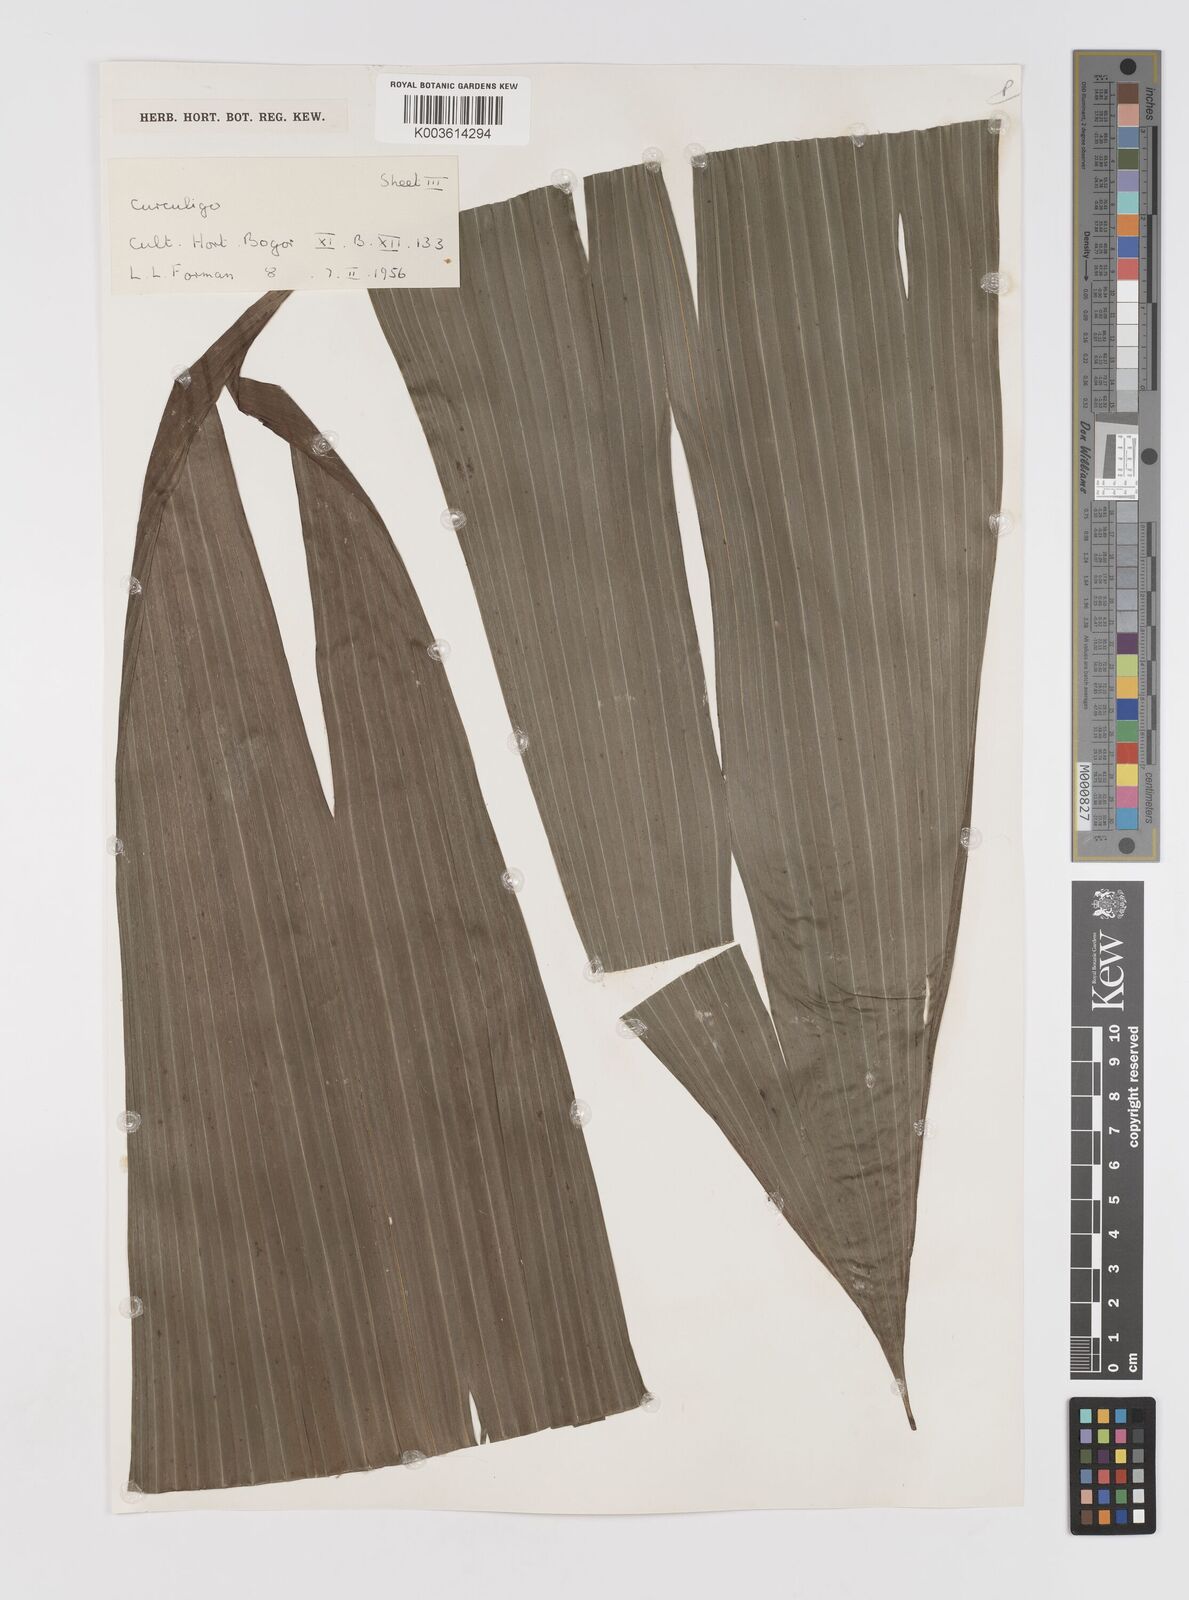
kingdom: Plantae
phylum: Tracheophyta
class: Liliopsida
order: Asparagales
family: Hypoxidaceae
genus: Curculigo
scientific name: Curculigo
